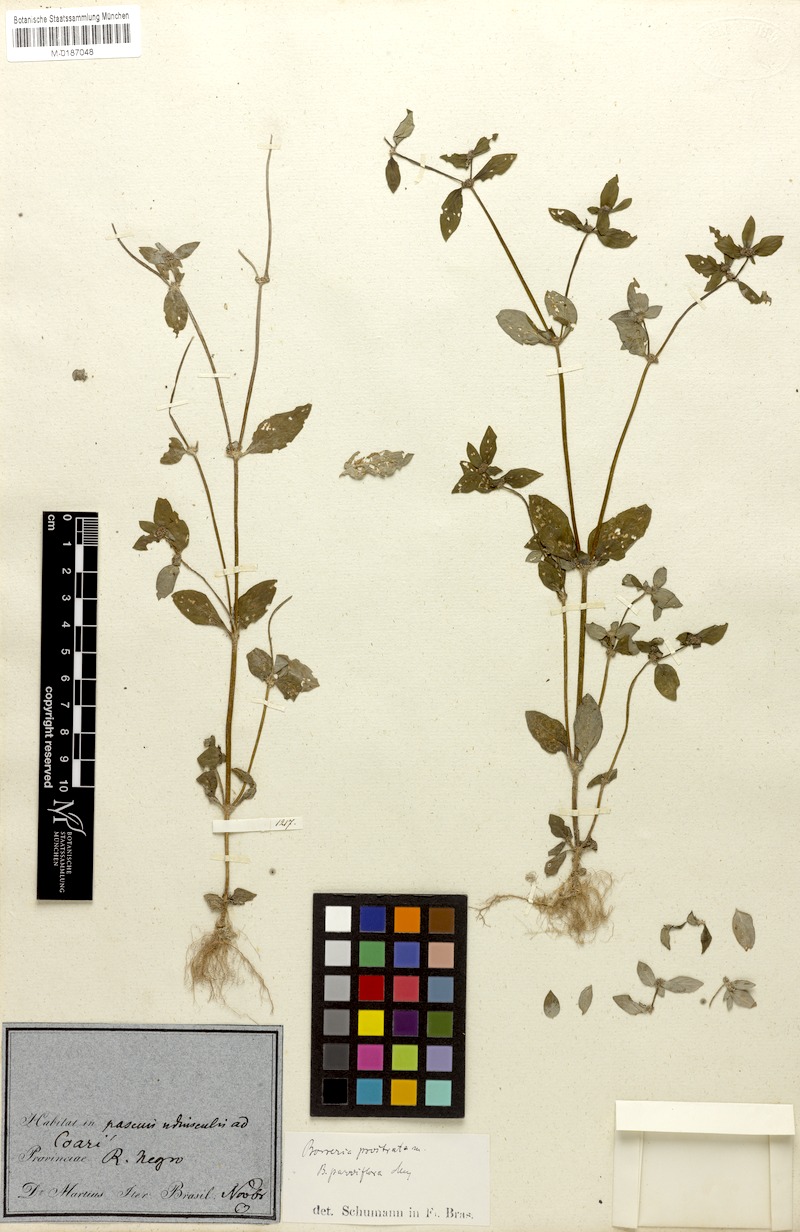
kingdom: Plantae
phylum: Tracheophyta
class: Magnoliopsida
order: Gentianales
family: Rubiaceae
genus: Spermacoce
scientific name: Spermacoce prostrata
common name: Prostrate false buttonweed
